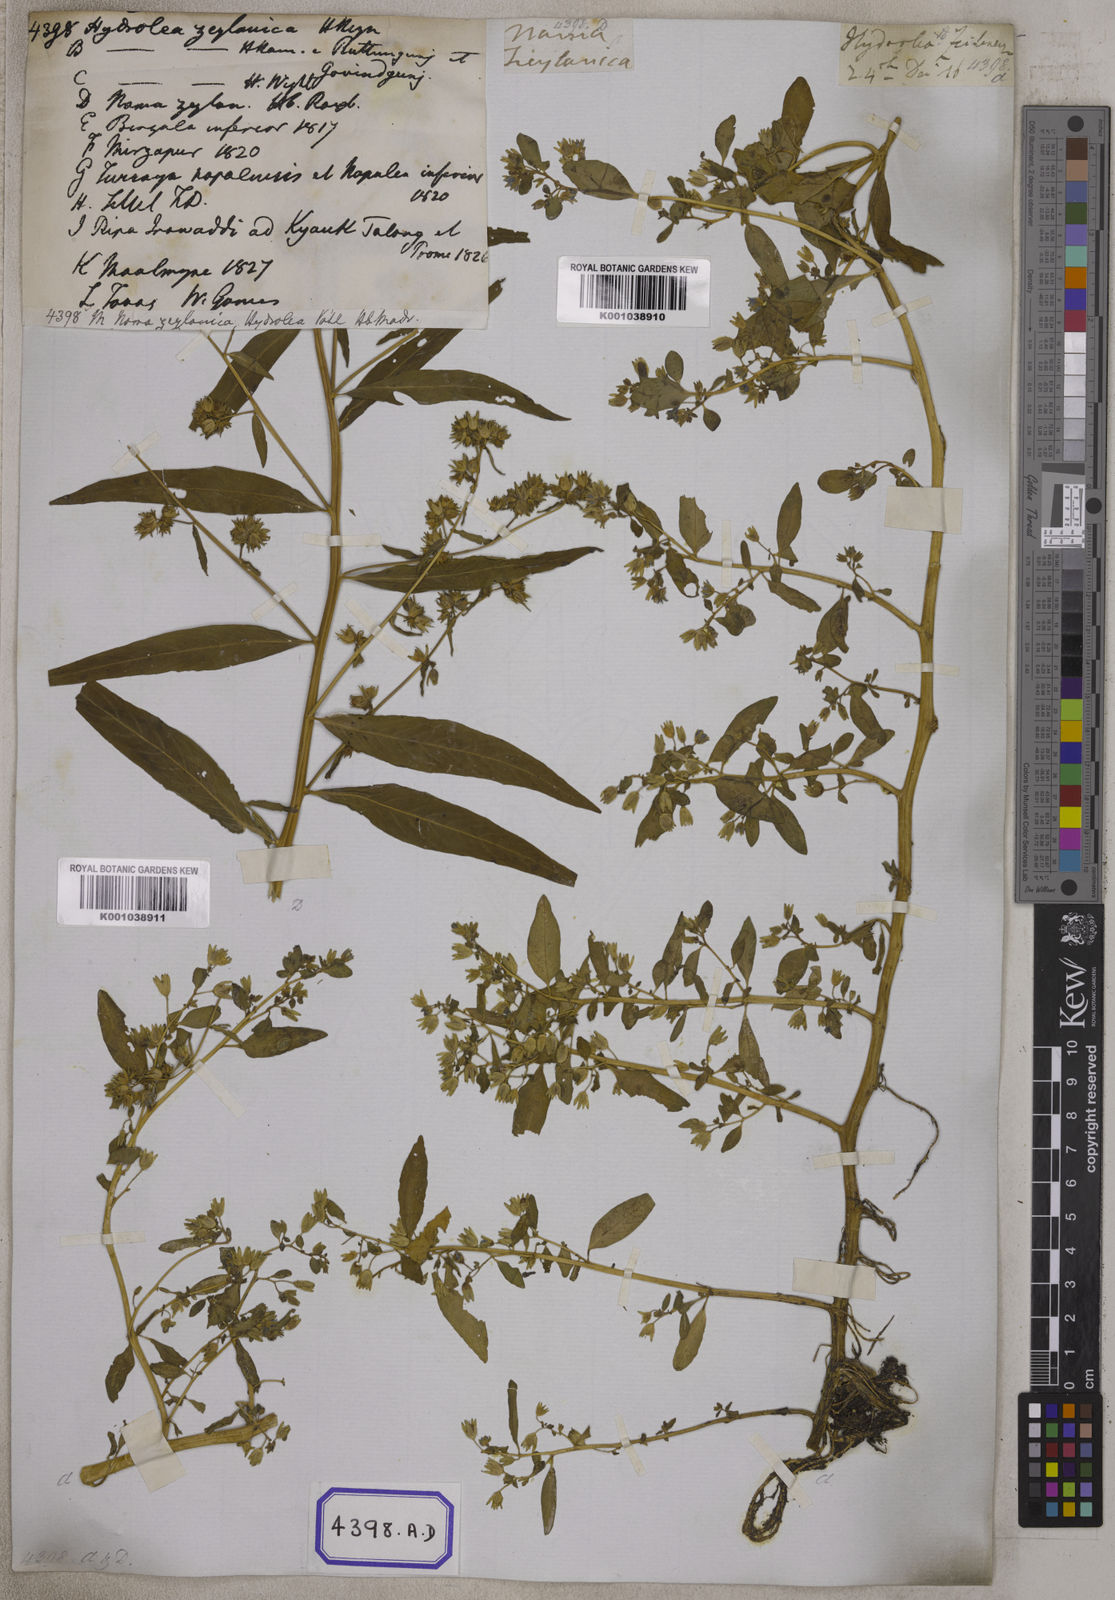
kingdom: Plantae
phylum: Tracheophyta
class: Magnoliopsida
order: Solanales
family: Hydroleaceae
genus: Hydrolea
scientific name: Hydrolea zeylanica
